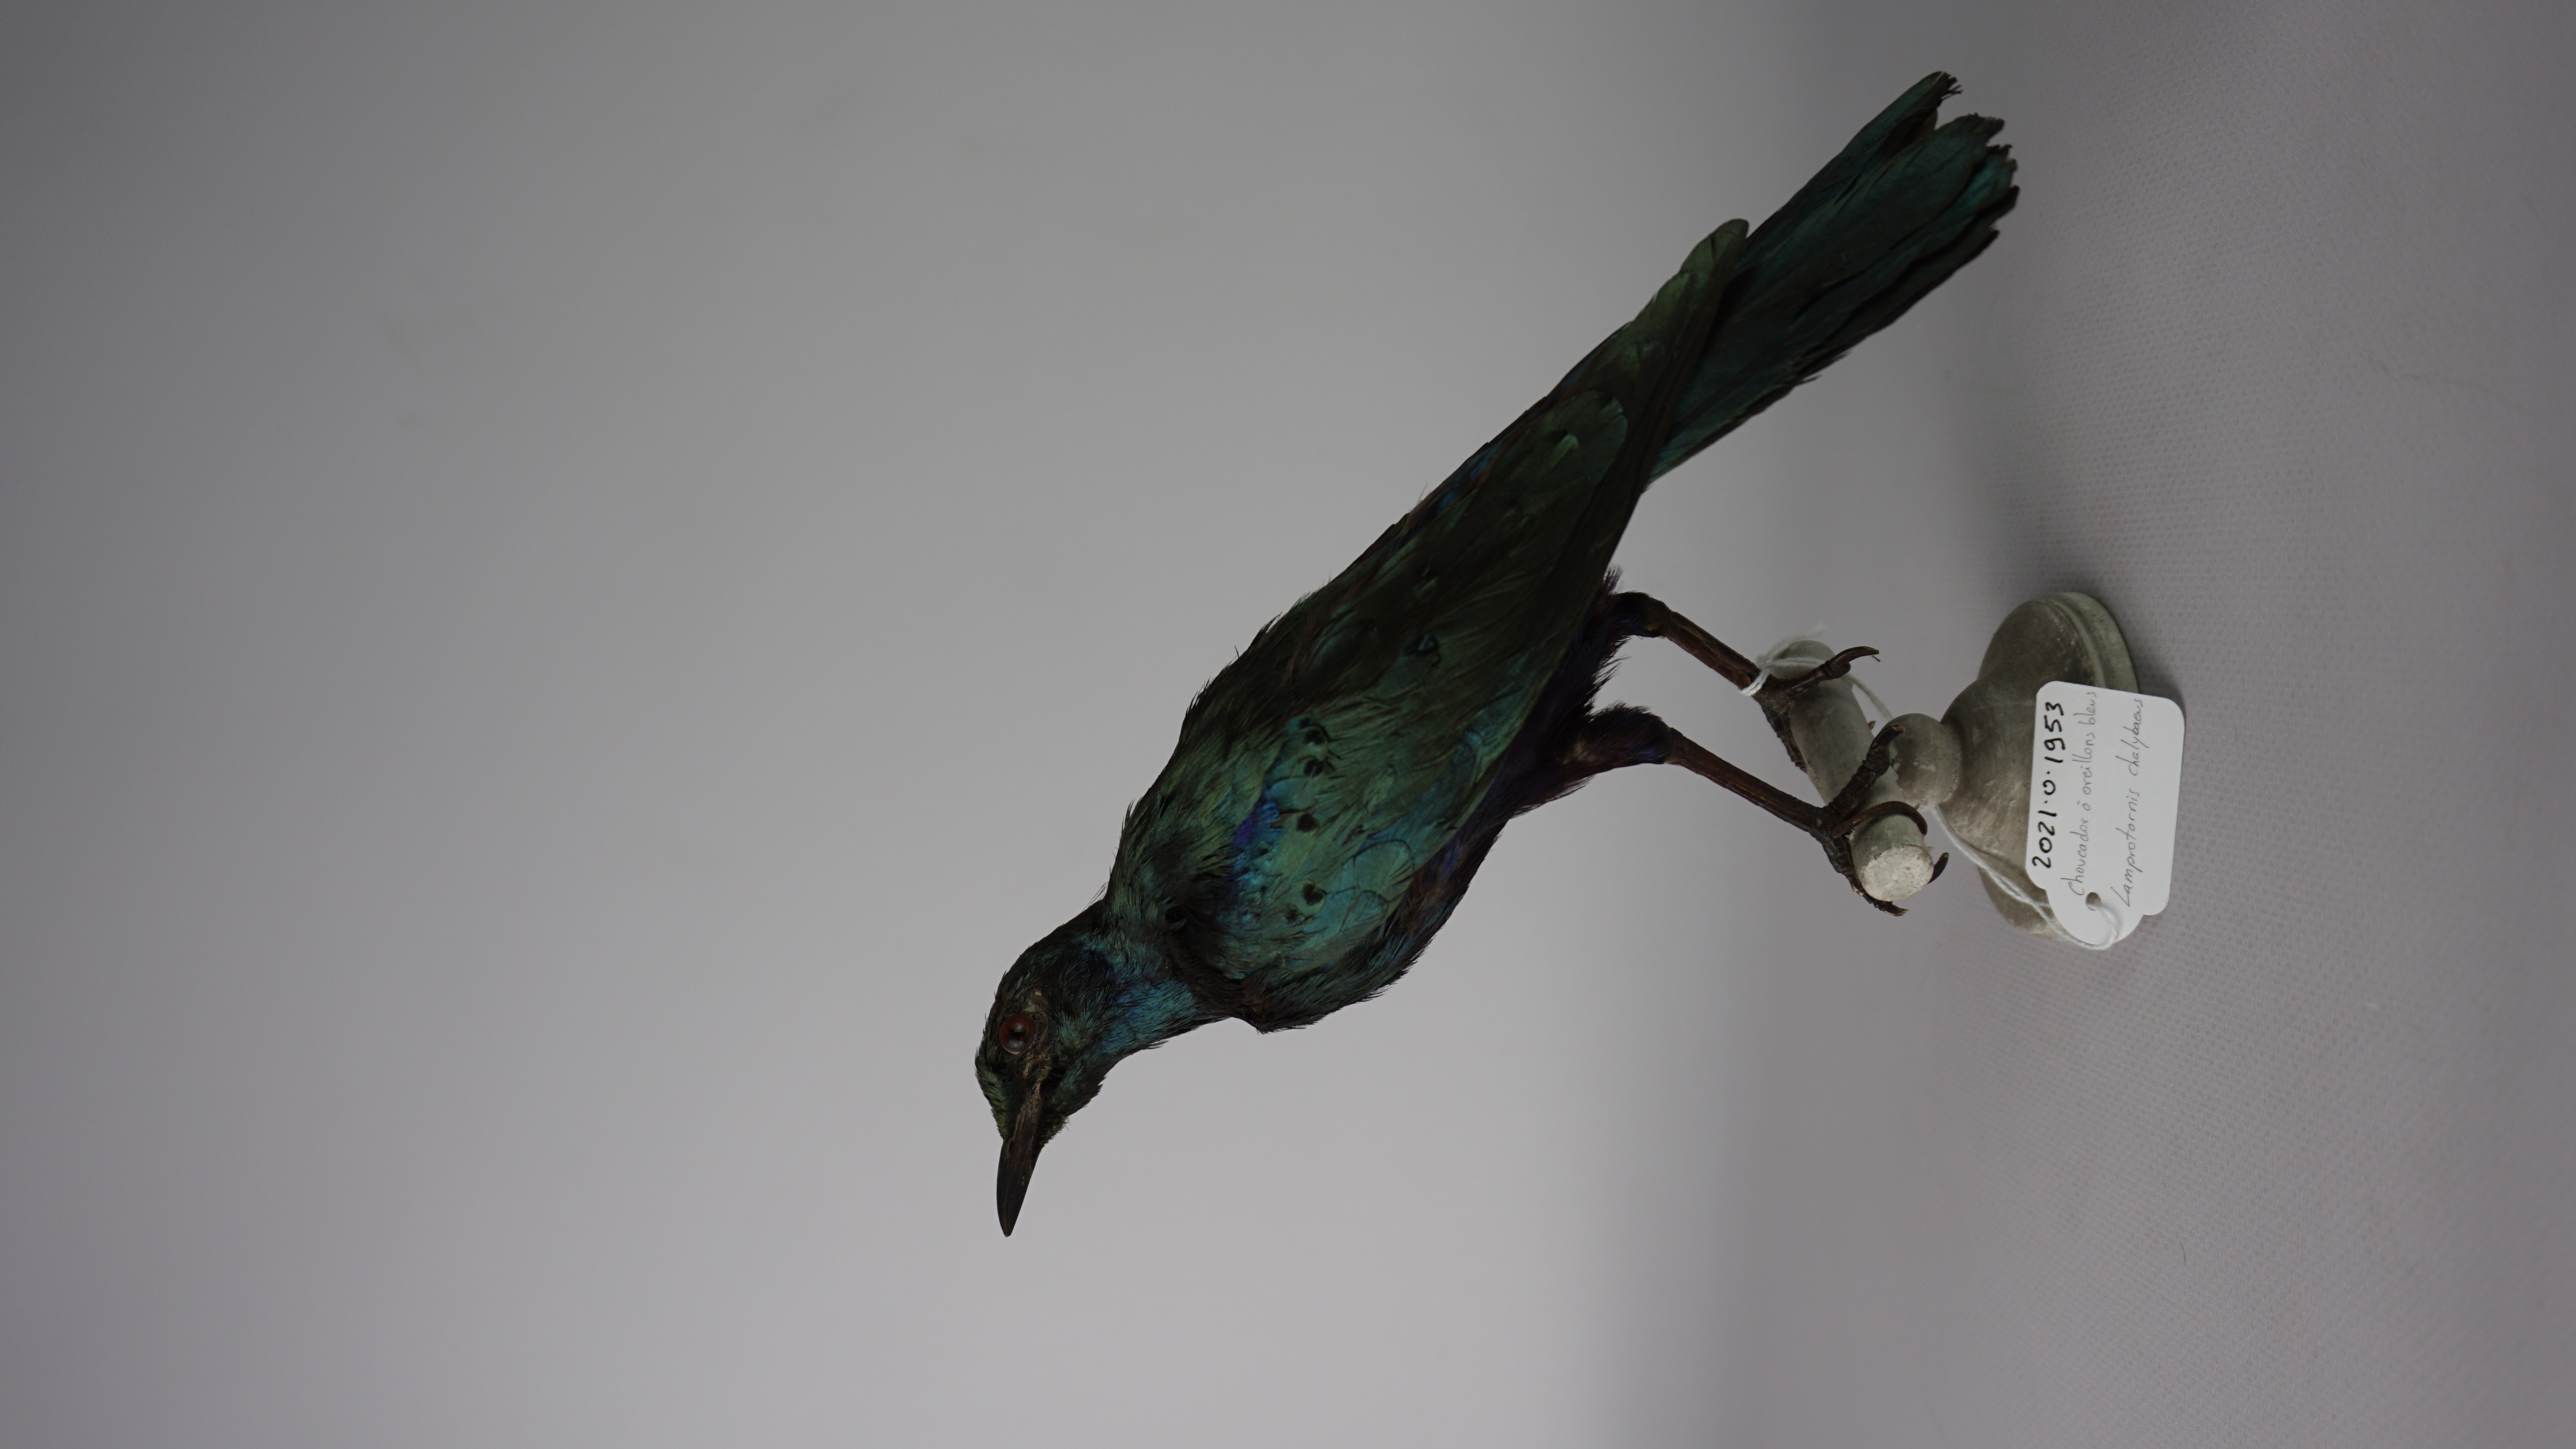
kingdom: Animalia
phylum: Chordata
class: Aves
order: Passeriformes
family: Sturnidae
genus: Lamprotornis
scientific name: Lamprotornis chalybaeus
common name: Greater blue-eared starling
